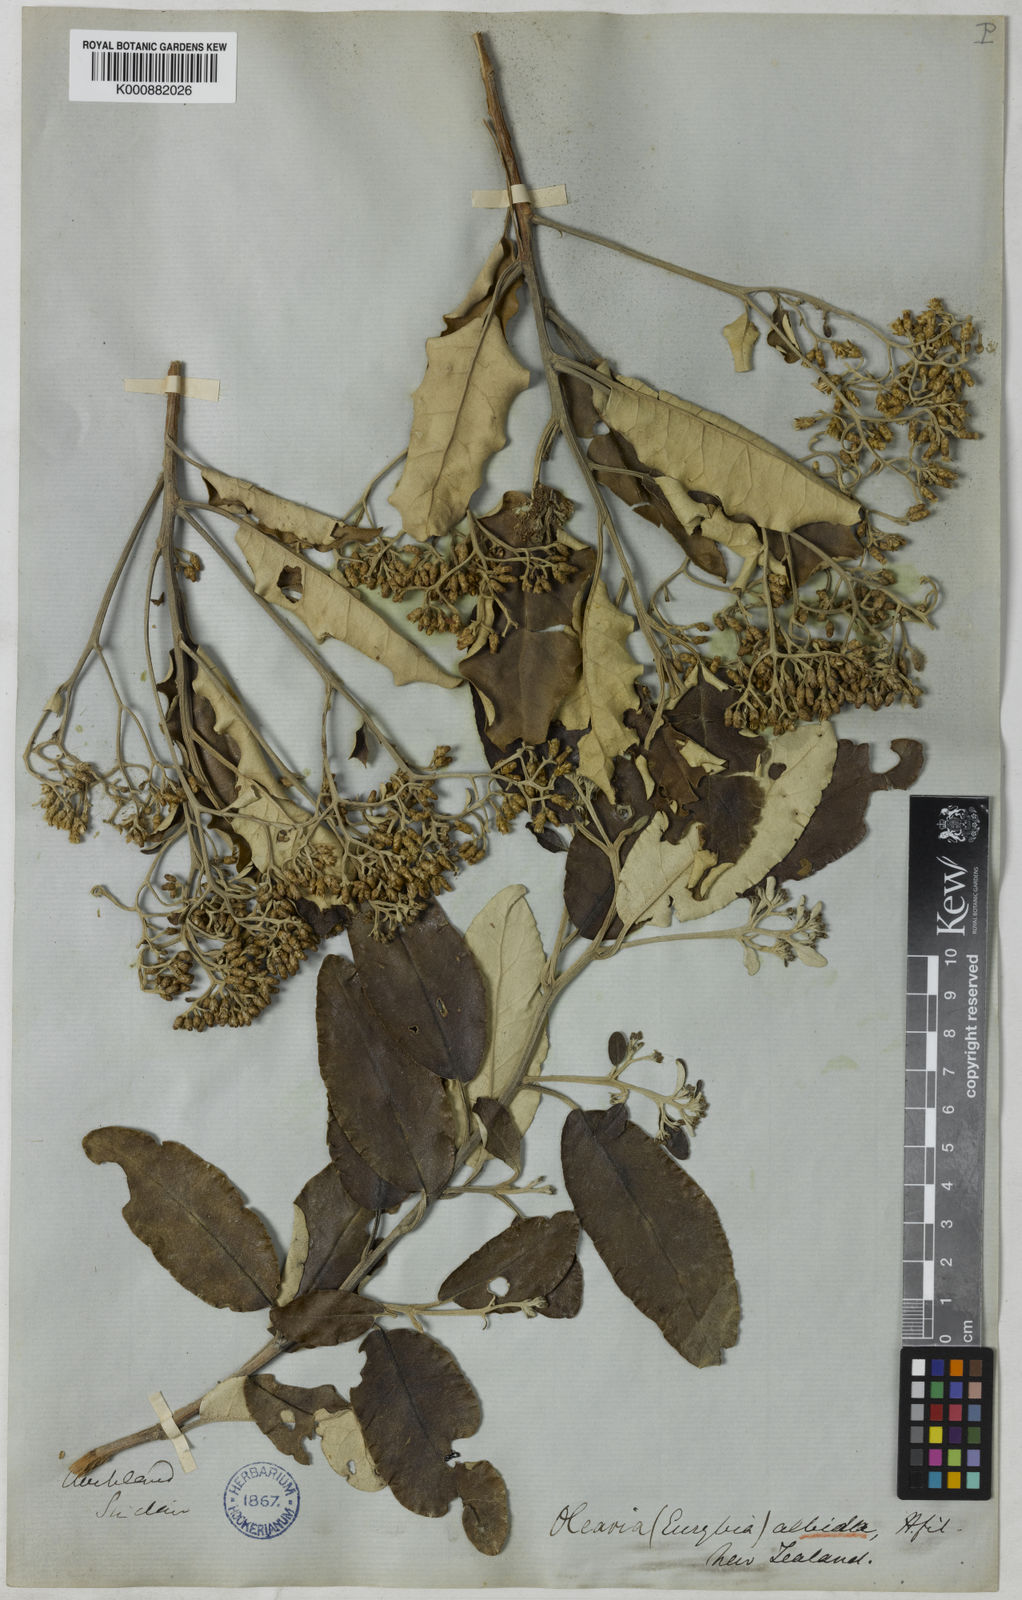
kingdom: Plantae
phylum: Tracheophyta
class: Magnoliopsida
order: Asterales
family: Asteraceae
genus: Olearia
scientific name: Olearia albida
